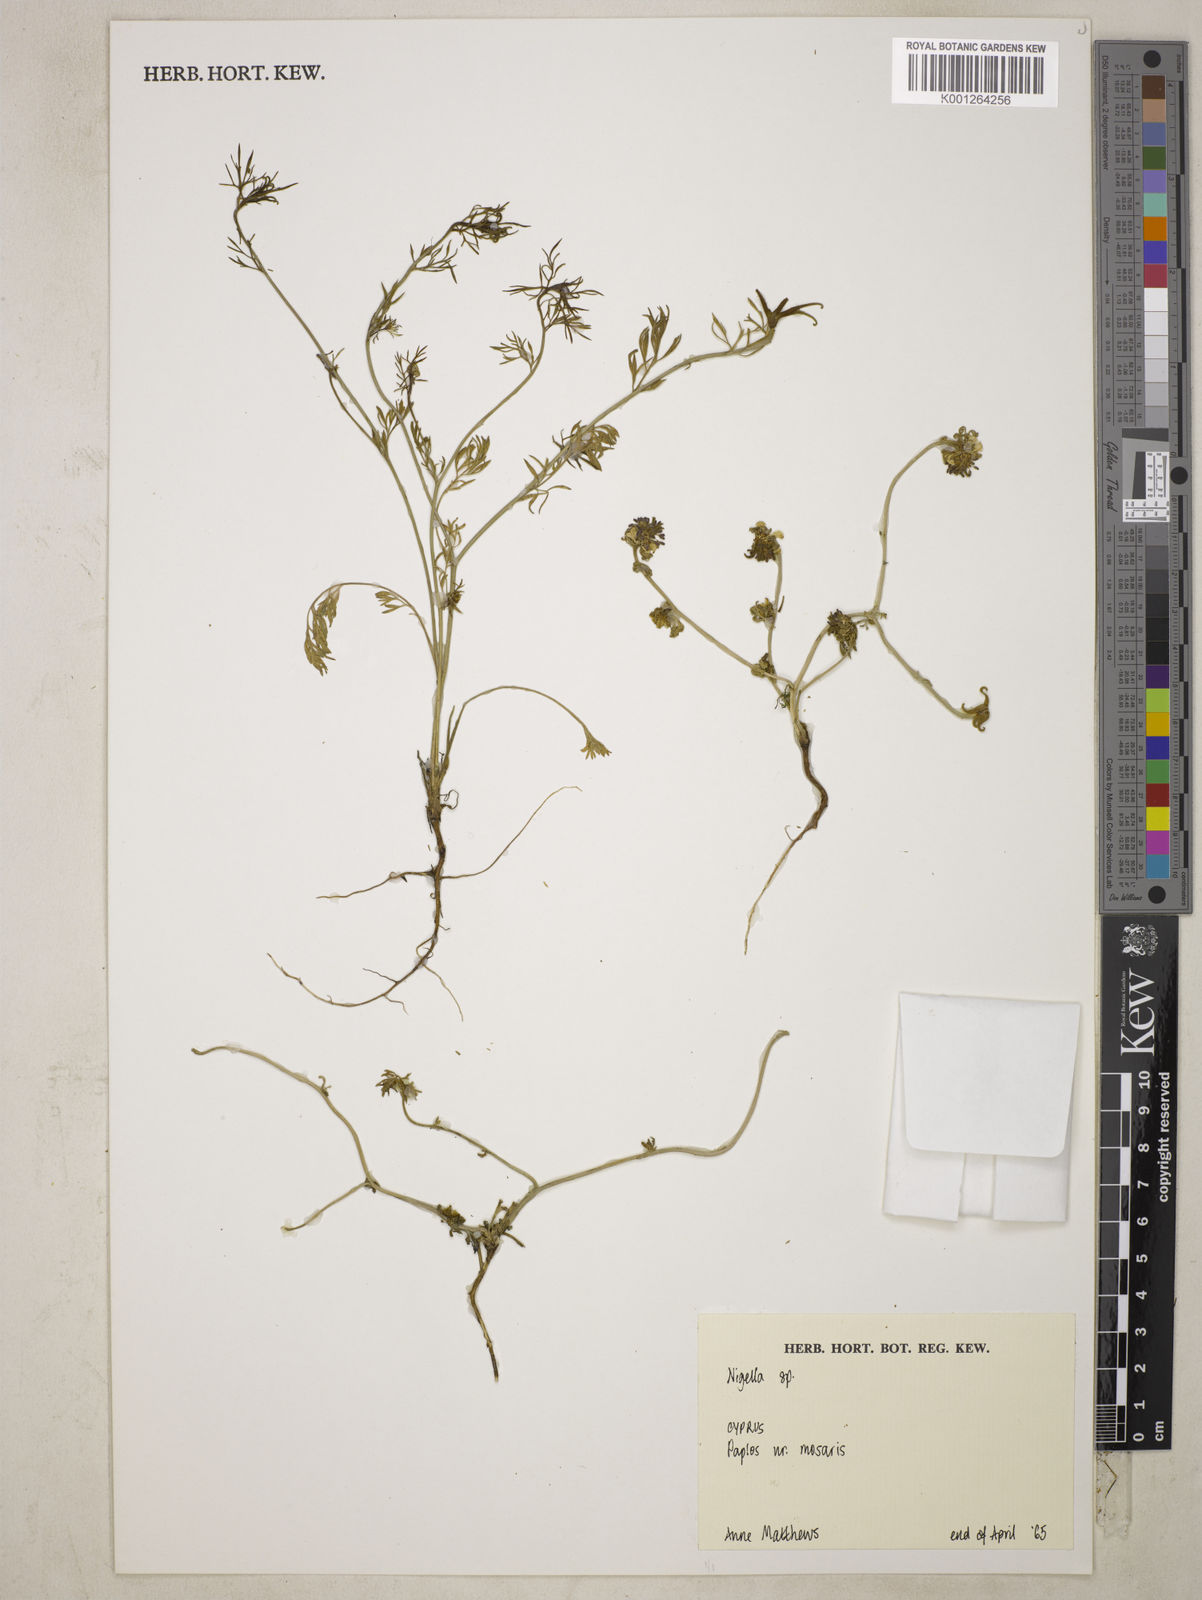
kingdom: Plantae
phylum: Tracheophyta
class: Magnoliopsida
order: Ranunculales
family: Ranunculaceae
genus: Nigella
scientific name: Nigella
